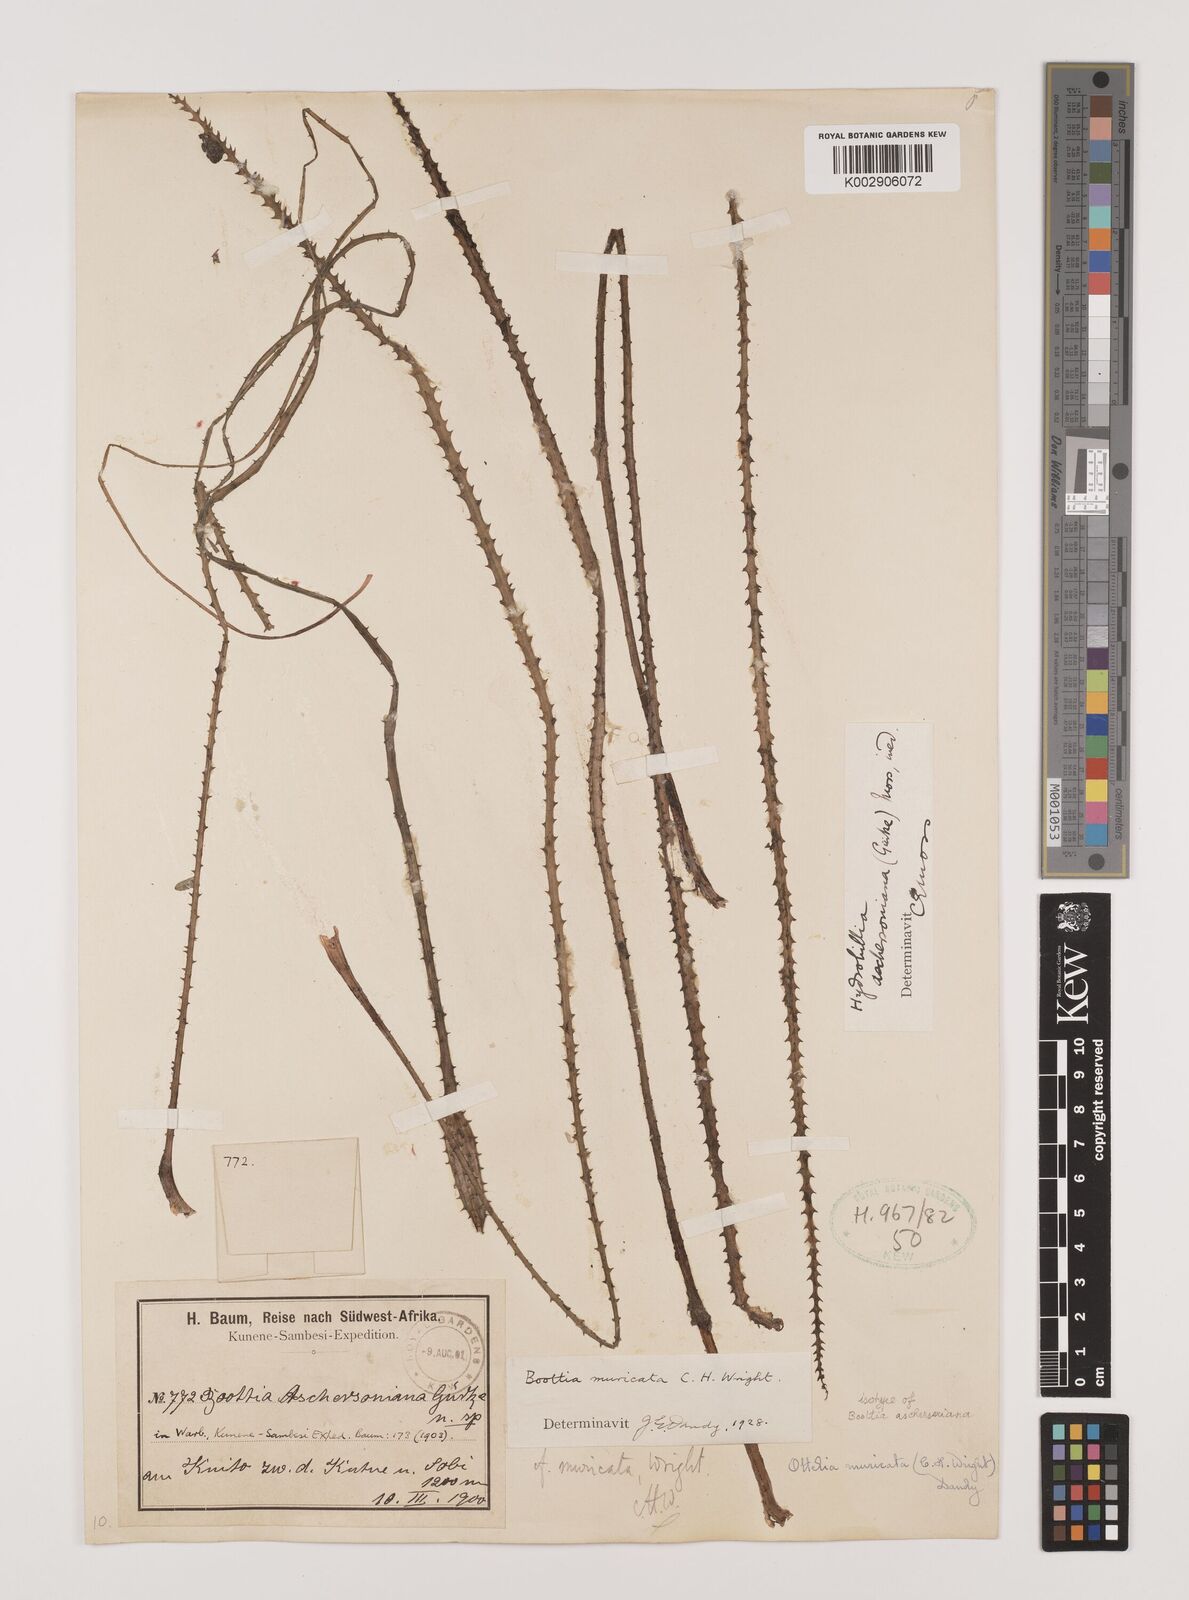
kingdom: Plantae
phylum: Tracheophyta
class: Liliopsida
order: Alismatales
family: Hydrocharitaceae
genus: Ottelia
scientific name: Ottelia muricata
